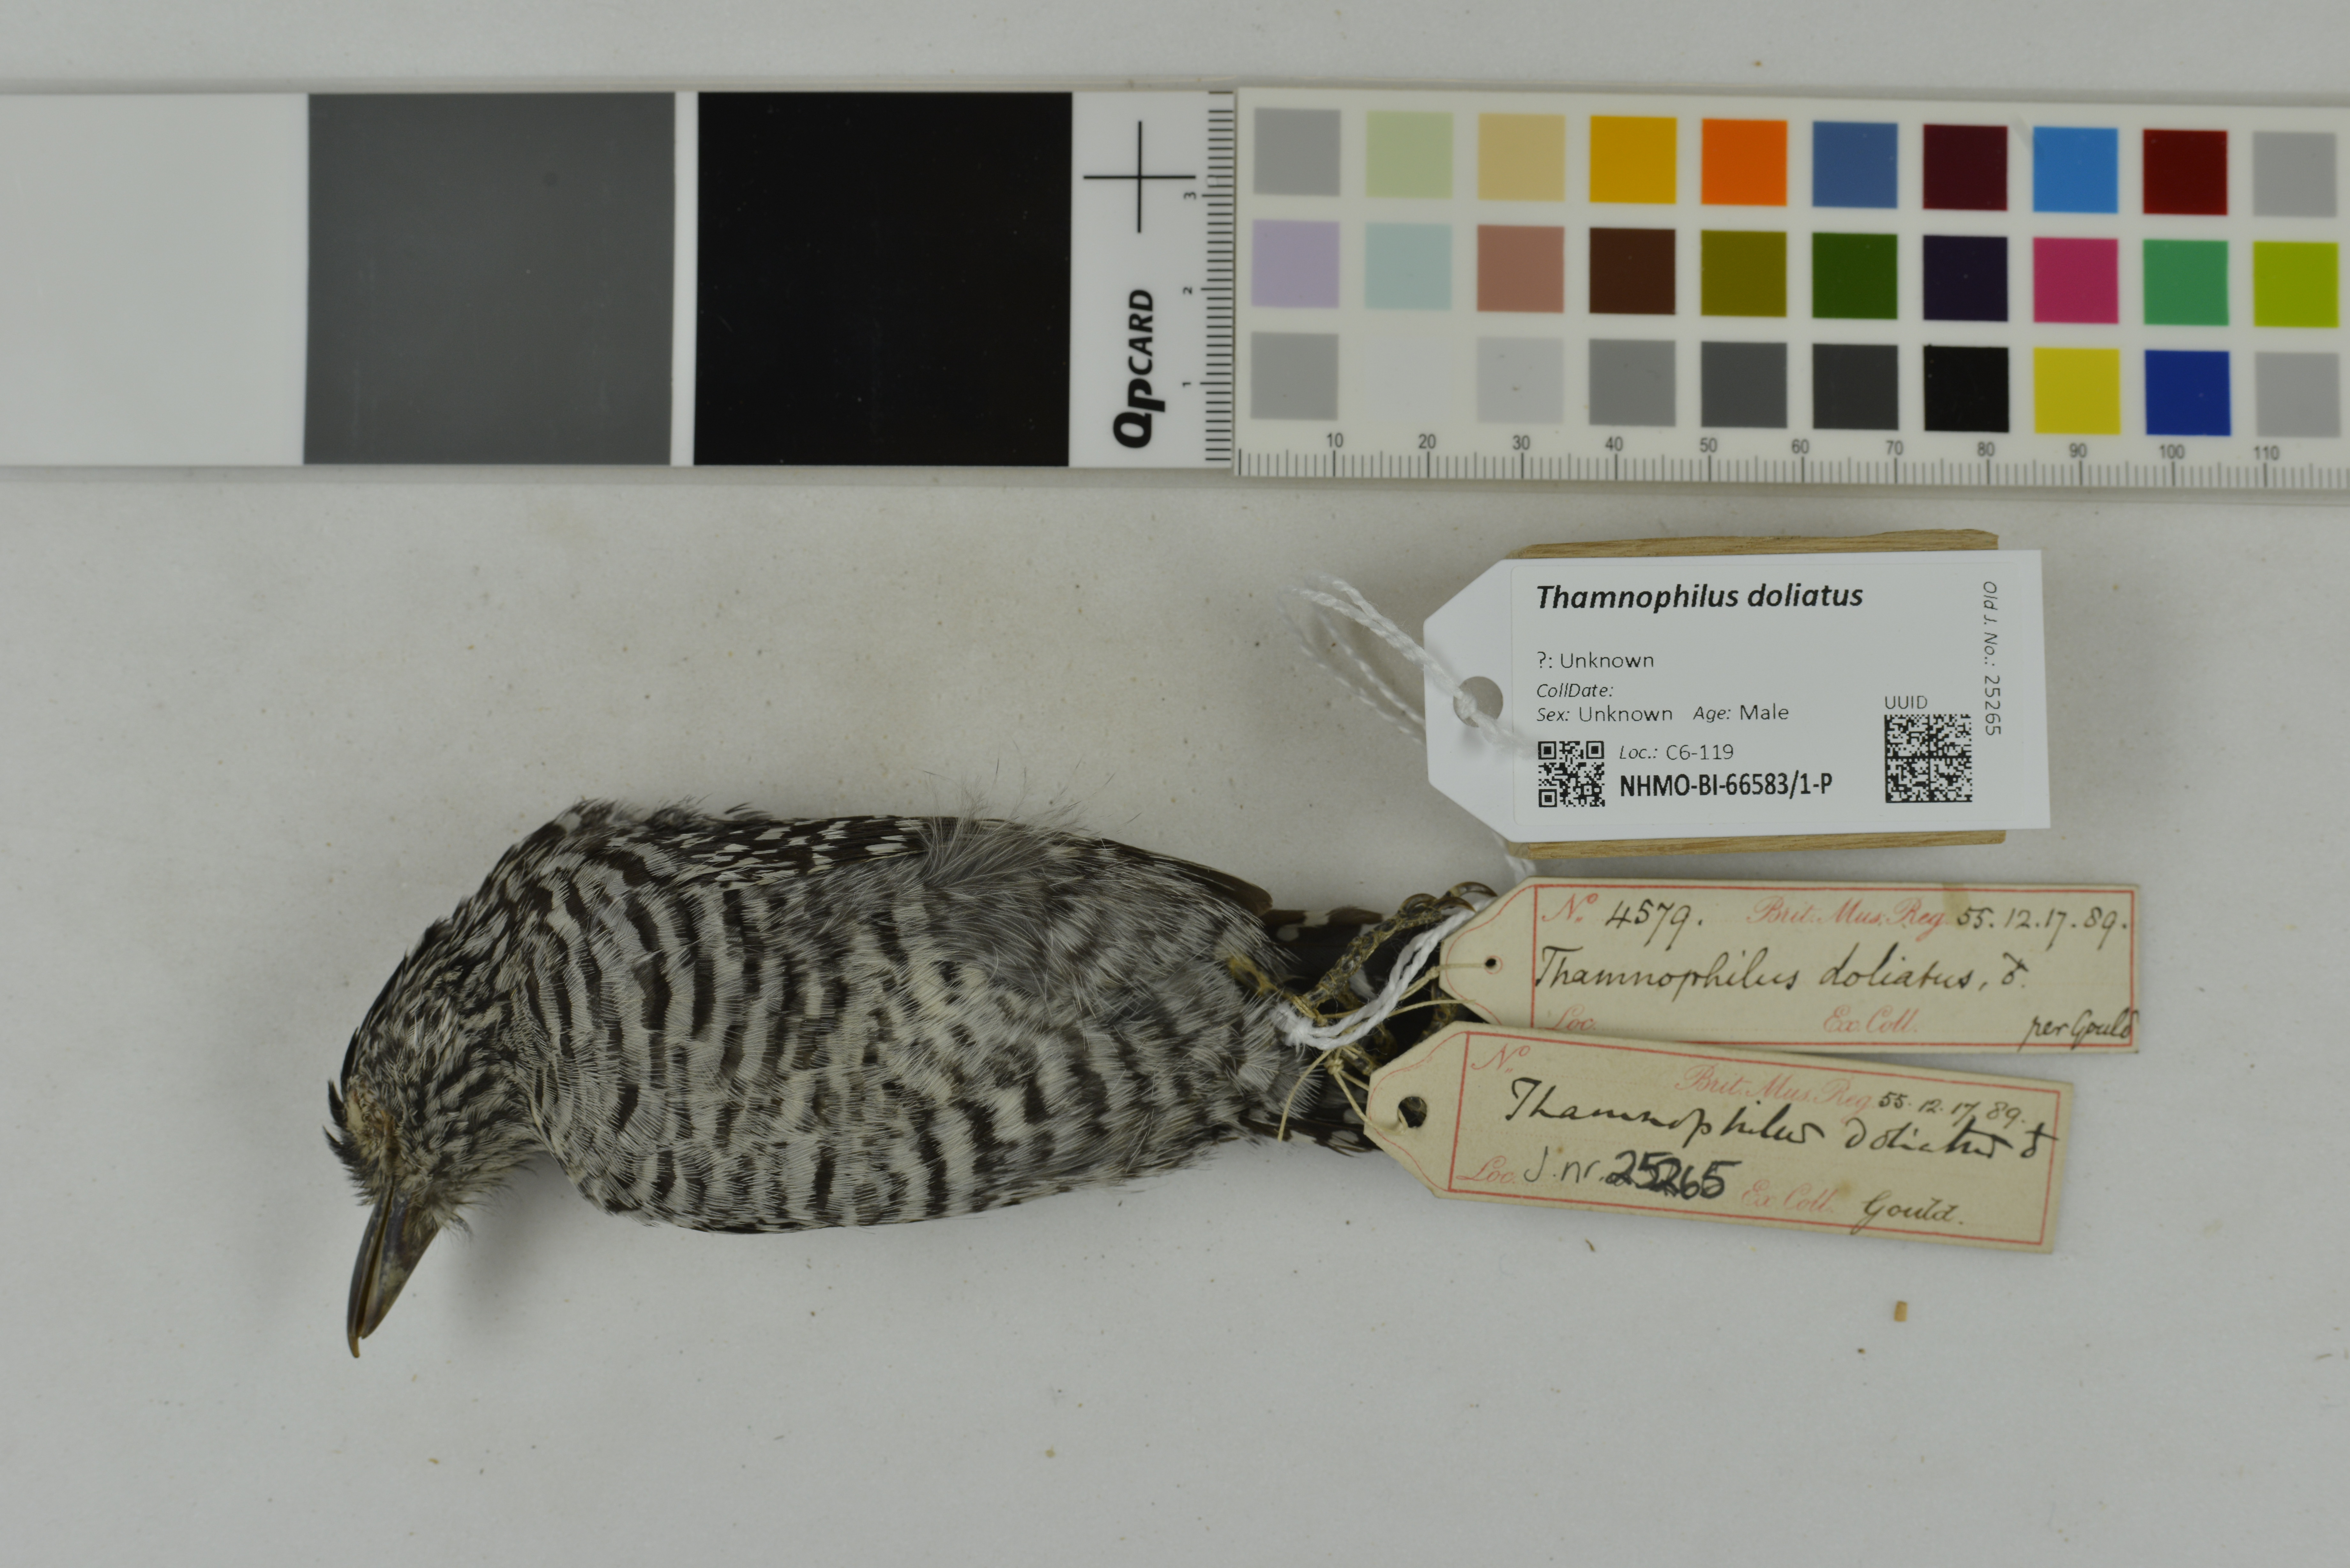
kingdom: Animalia
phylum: Chordata
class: Aves
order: Passeriformes
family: Thamnophilidae
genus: Thamnophilus
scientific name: Thamnophilus doliatus
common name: Barred antshrike
